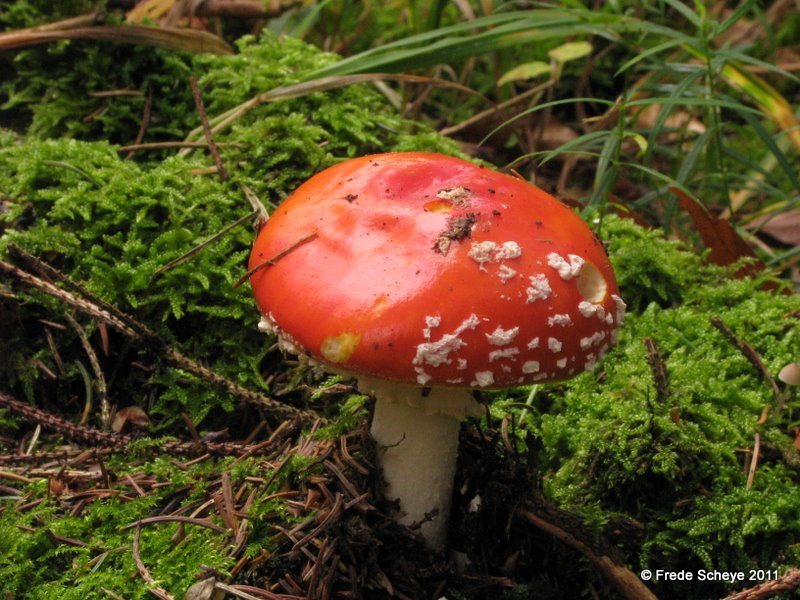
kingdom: Fungi
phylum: Basidiomycota
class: Agaricomycetes
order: Agaricales
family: Amanitaceae
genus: Amanita
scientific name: Amanita muscaria
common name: rød fluesvamp
